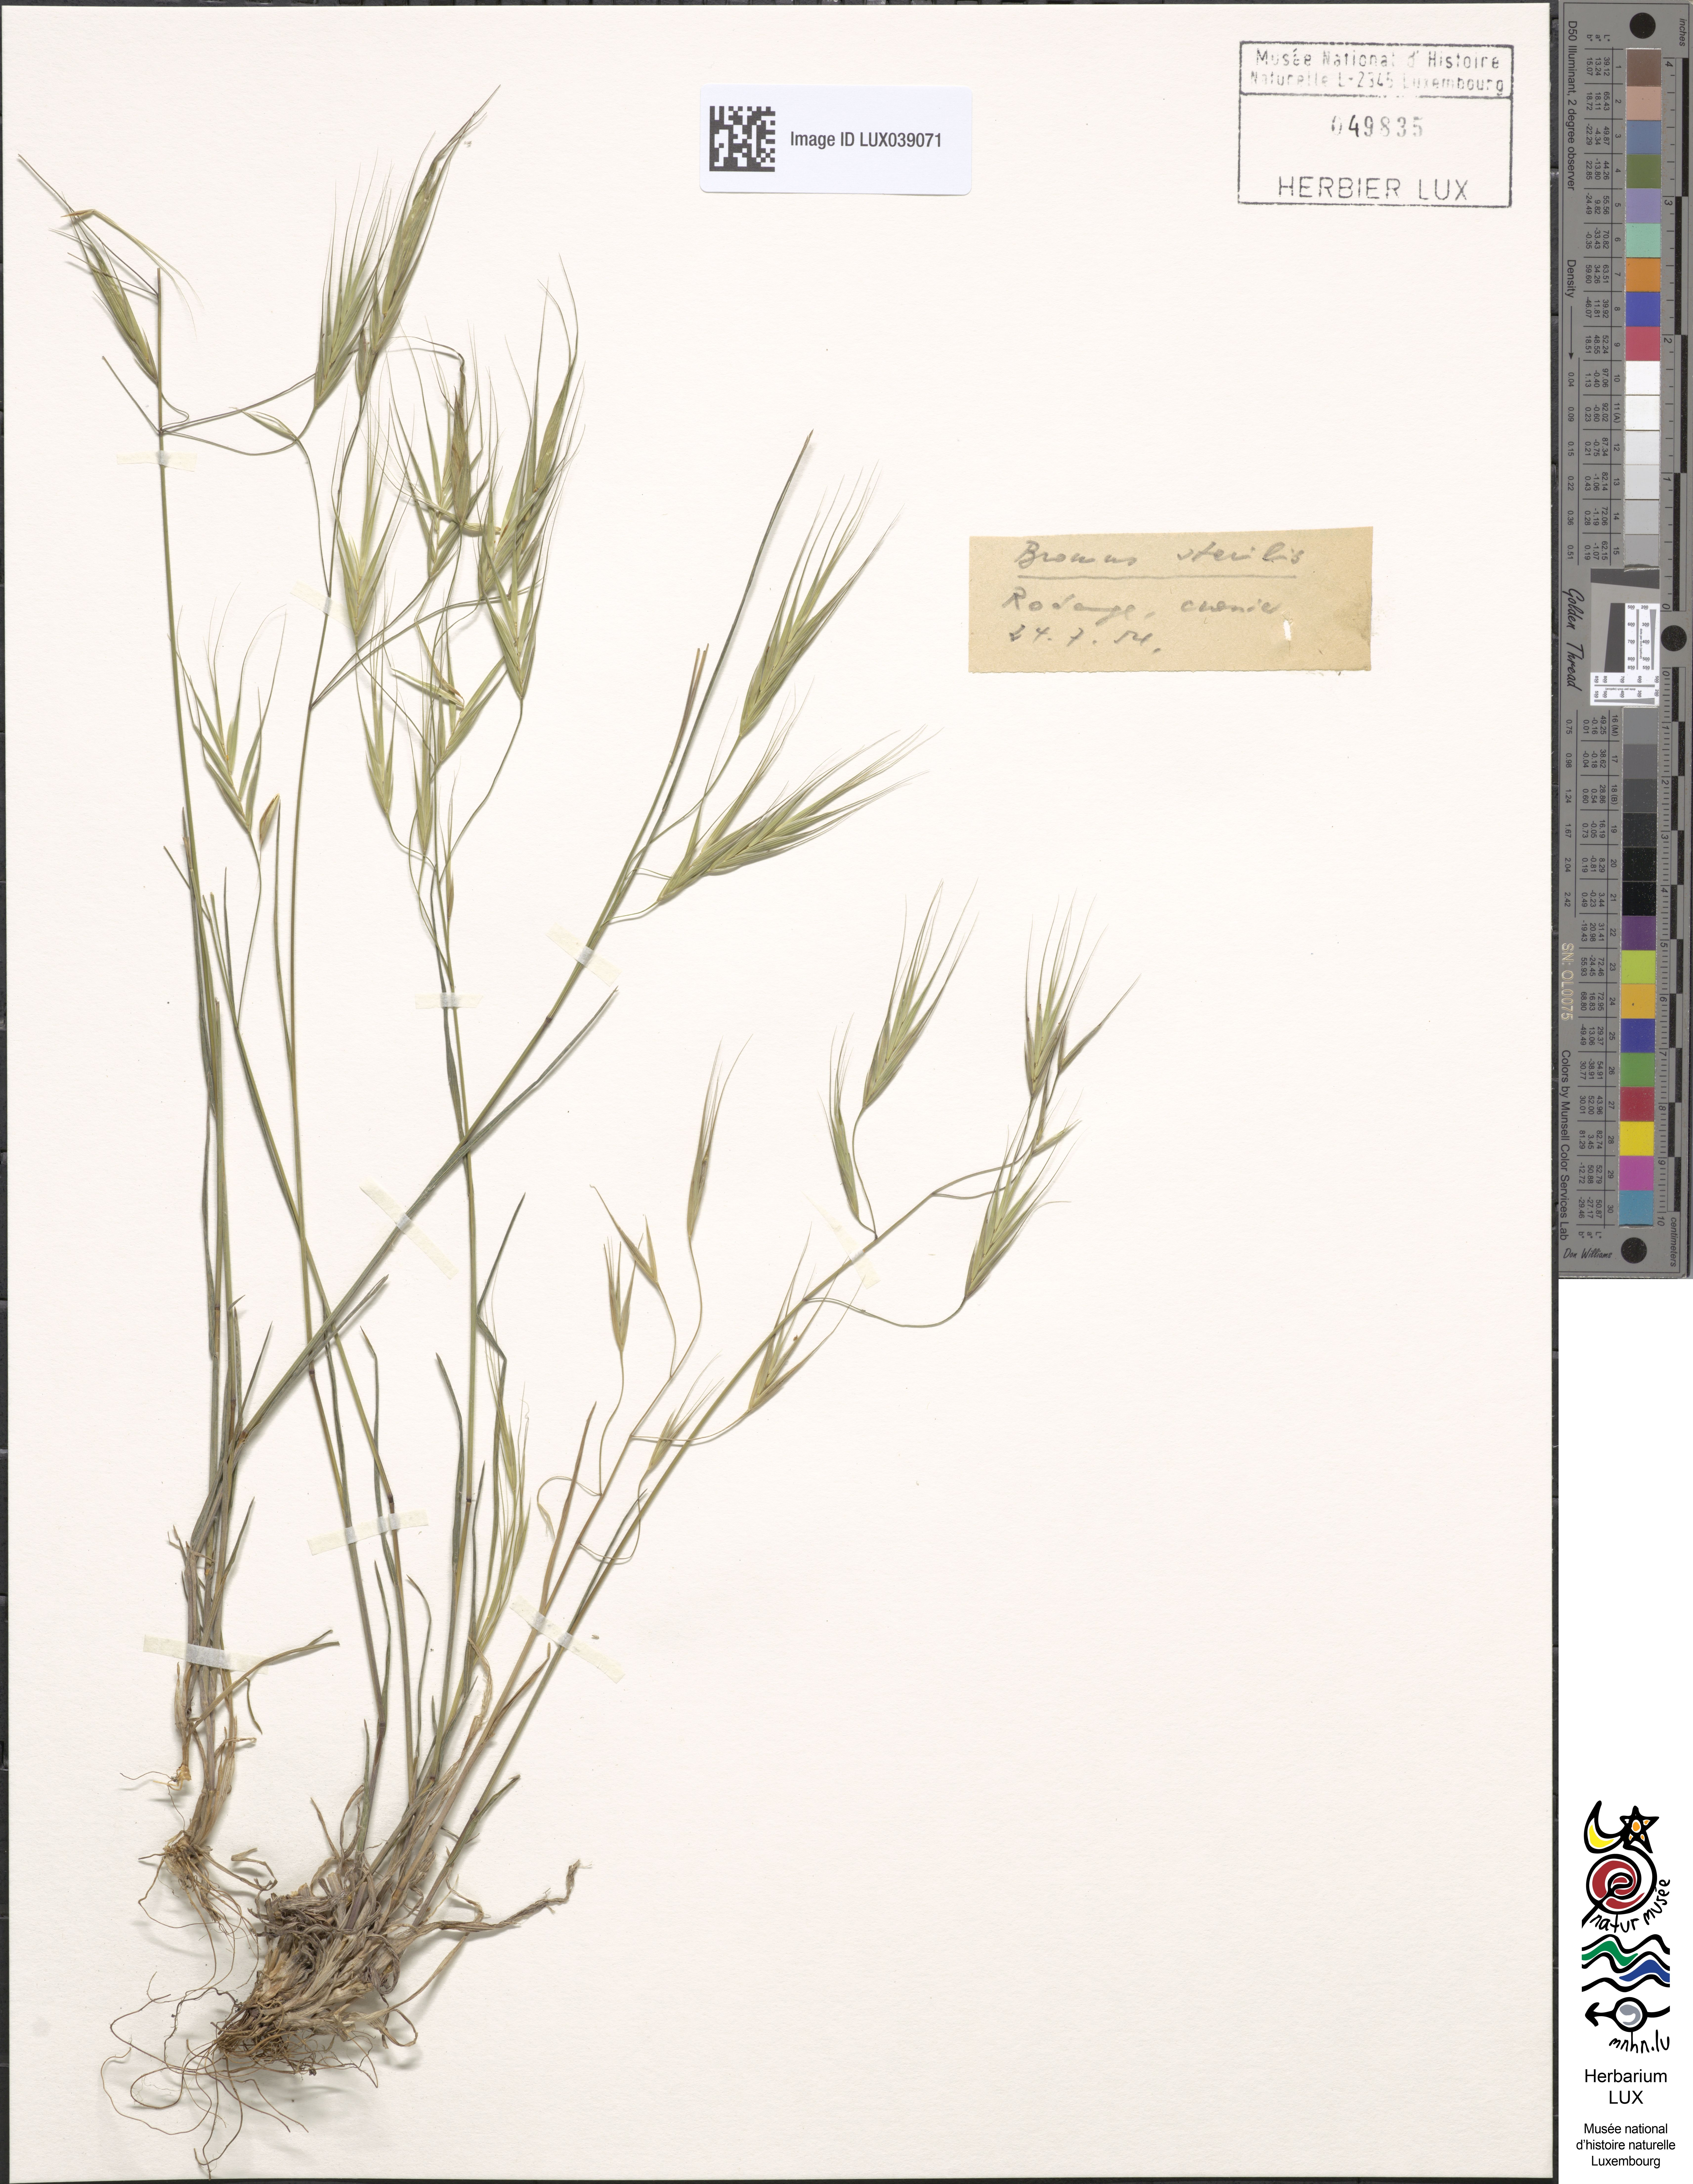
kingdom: Plantae
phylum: Tracheophyta
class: Liliopsida
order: Poales
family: Poaceae
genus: Bromus
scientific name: Bromus sterilis
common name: Poverty brome
